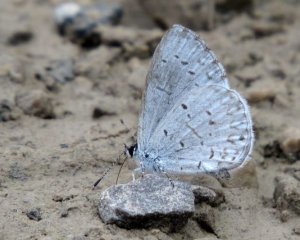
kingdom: Animalia
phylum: Arthropoda
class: Insecta
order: Lepidoptera
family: Lycaenidae
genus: Cyaniris
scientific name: Cyaniris neglecta
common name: Summer Azure
